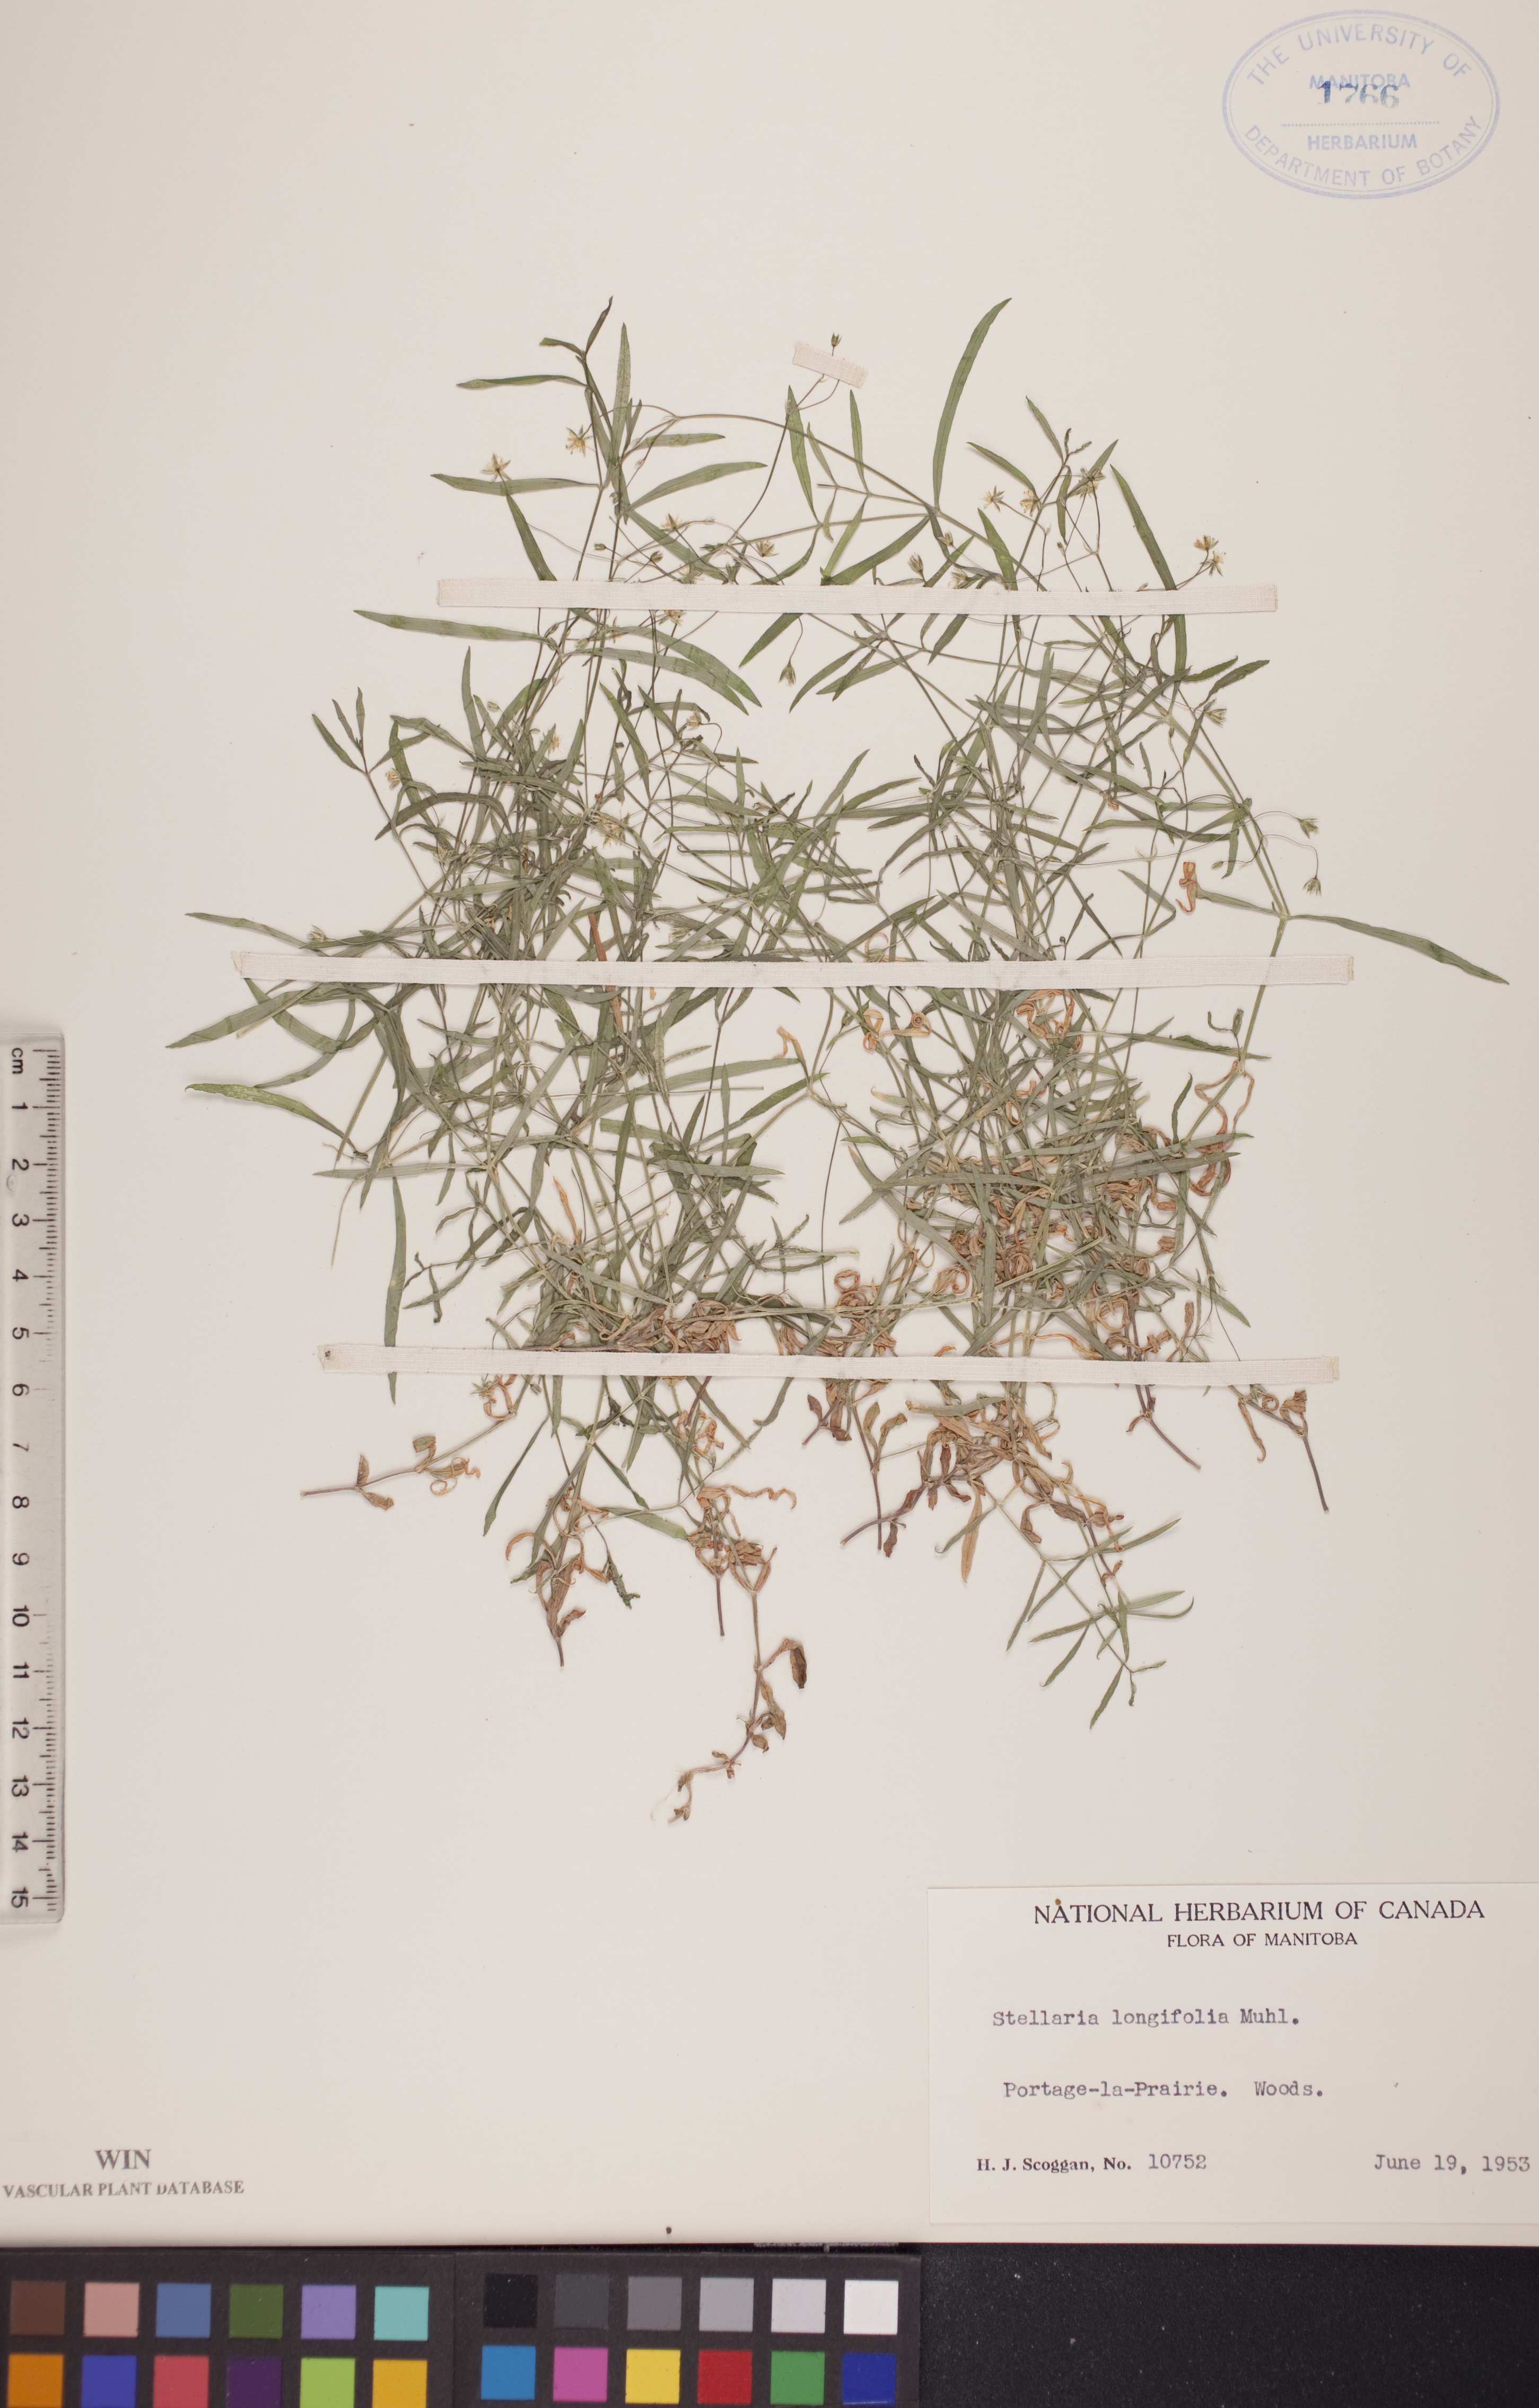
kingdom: Plantae
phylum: Tracheophyta
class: Magnoliopsida
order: Caryophyllales
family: Caryophyllaceae
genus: Stellaria
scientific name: Stellaria longifolia
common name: Long-leaved chickweed
